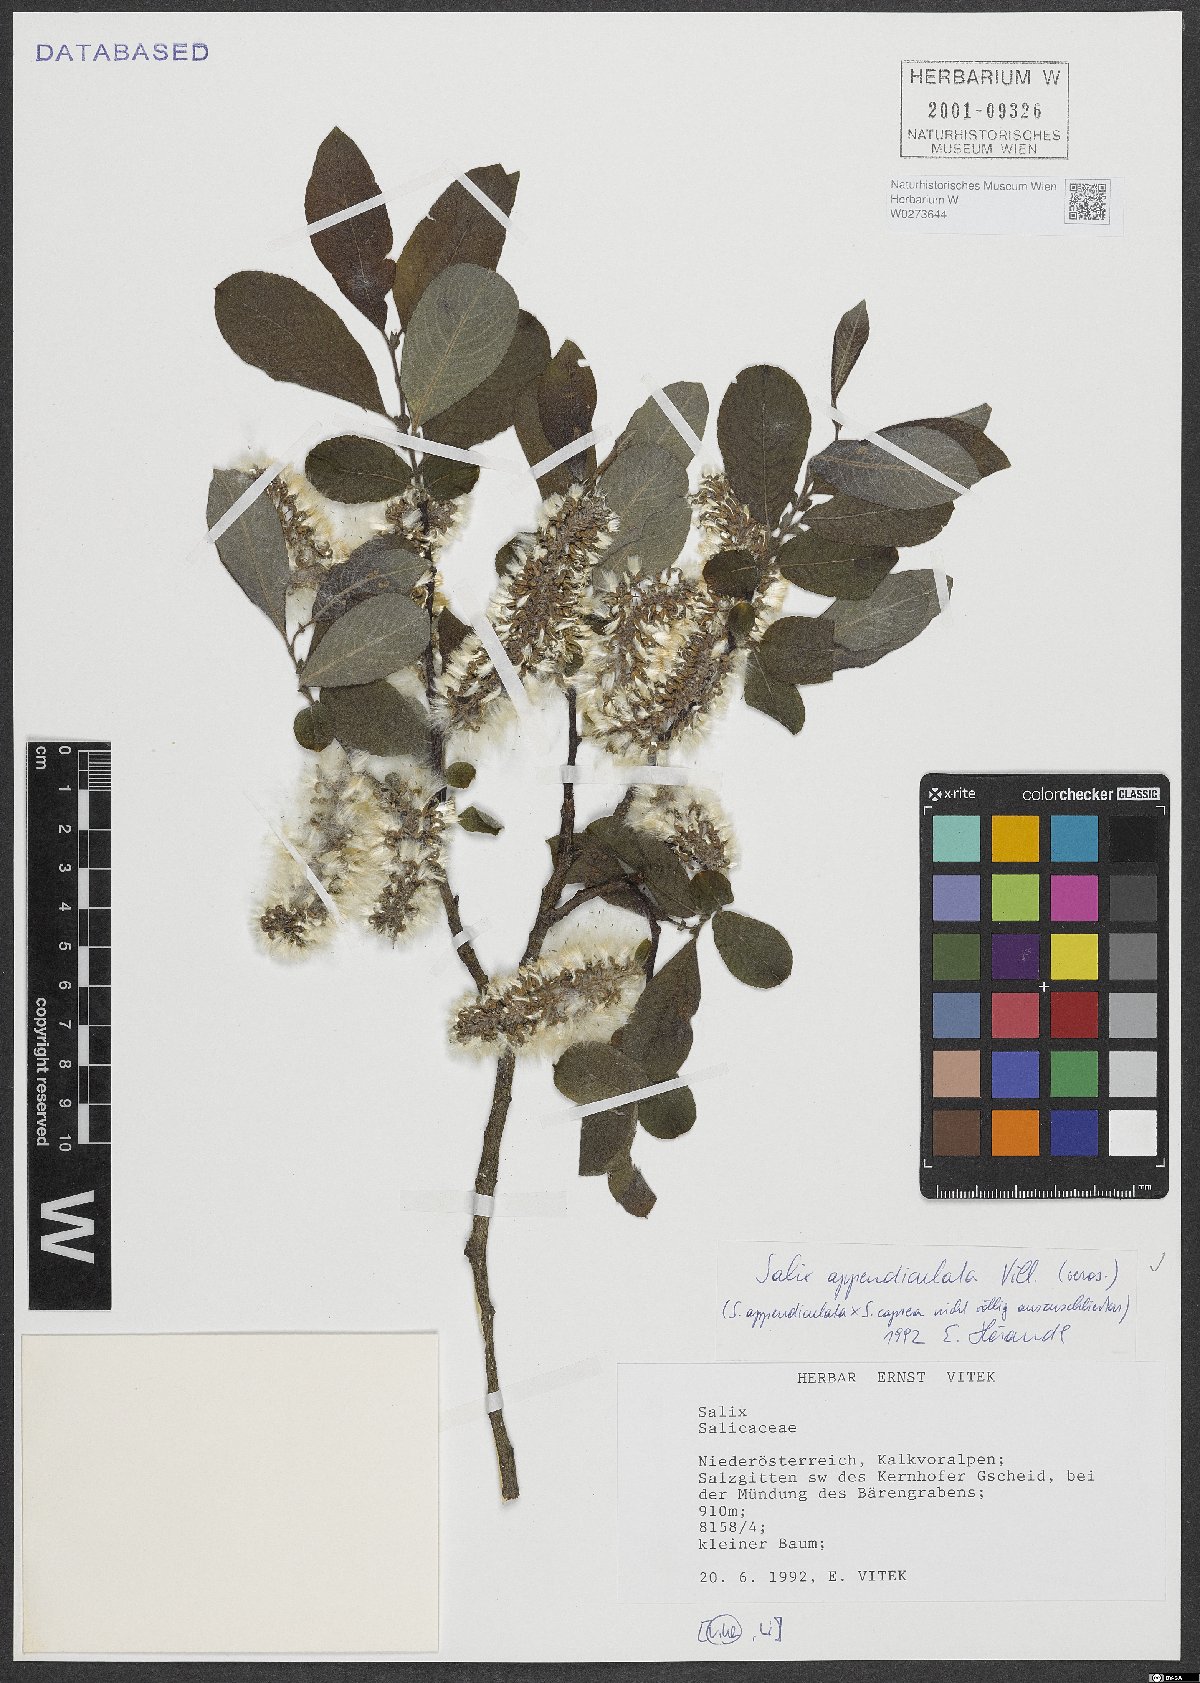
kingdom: Plantae
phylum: Tracheophyta
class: Magnoliopsida
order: Malpighiales
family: Salicaceae
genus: Salix
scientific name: Salix appendiculata
